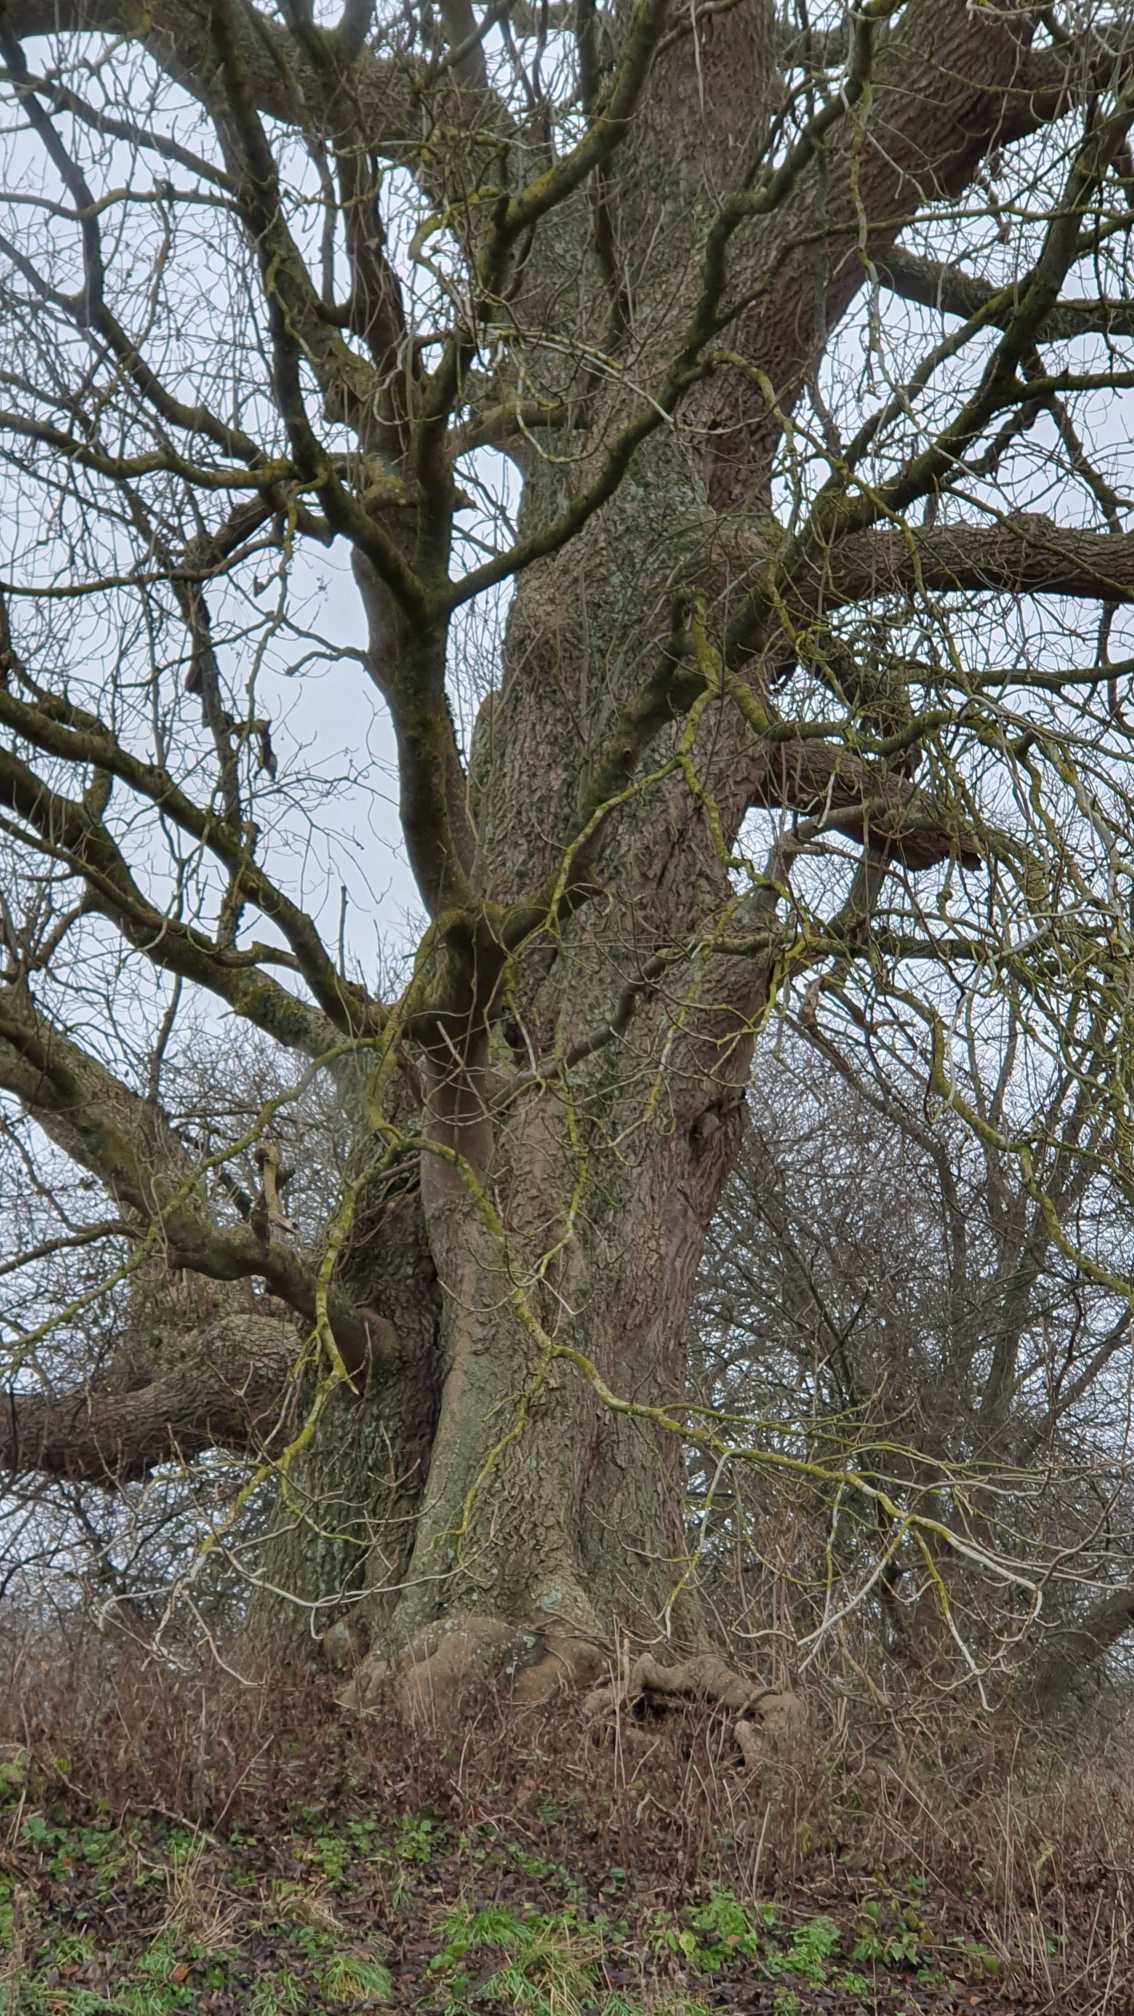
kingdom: Plantae
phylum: Tracheophyta
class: Magnoliopsida
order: Lamiales
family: Oleaceae
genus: Fraxinus
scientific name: Fraxinus excelsior
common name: Ask
